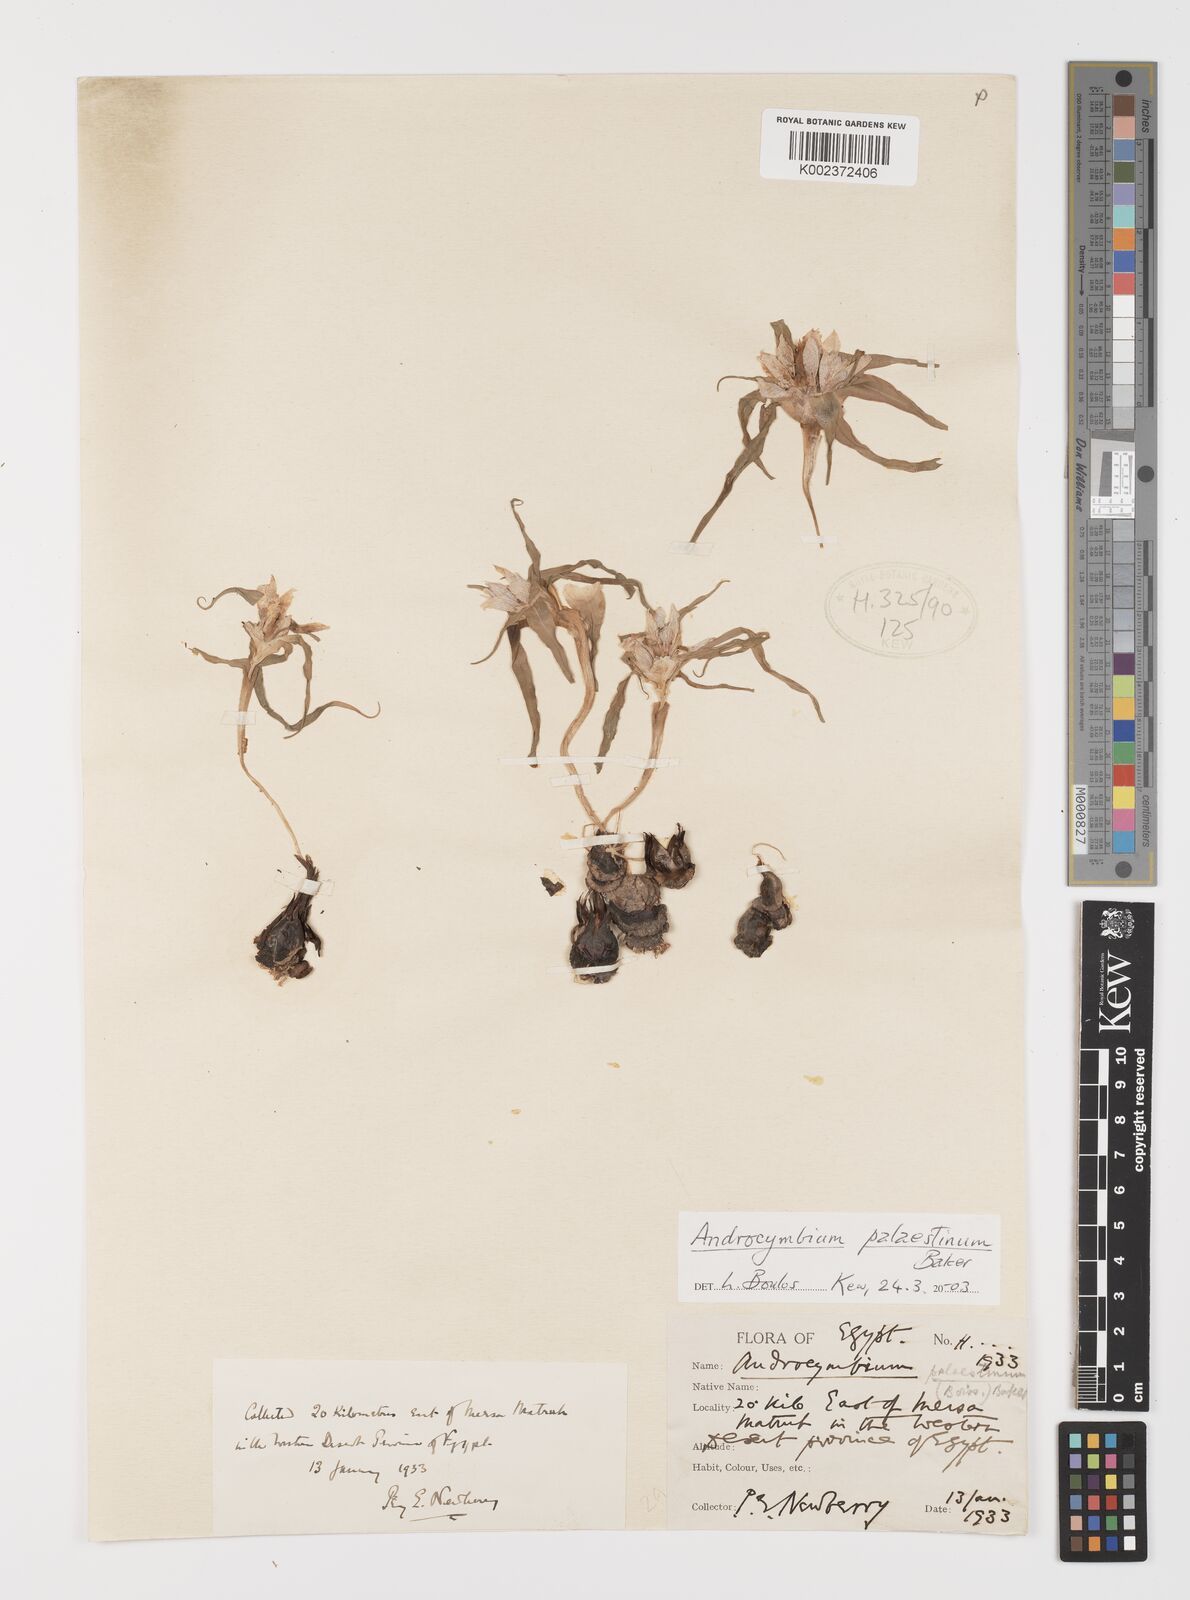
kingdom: Plantae
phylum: Tracheophyta
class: Liliopsida
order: Liliales
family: Colchicaceae
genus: Colchicum
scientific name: Colchicum palaestinum
